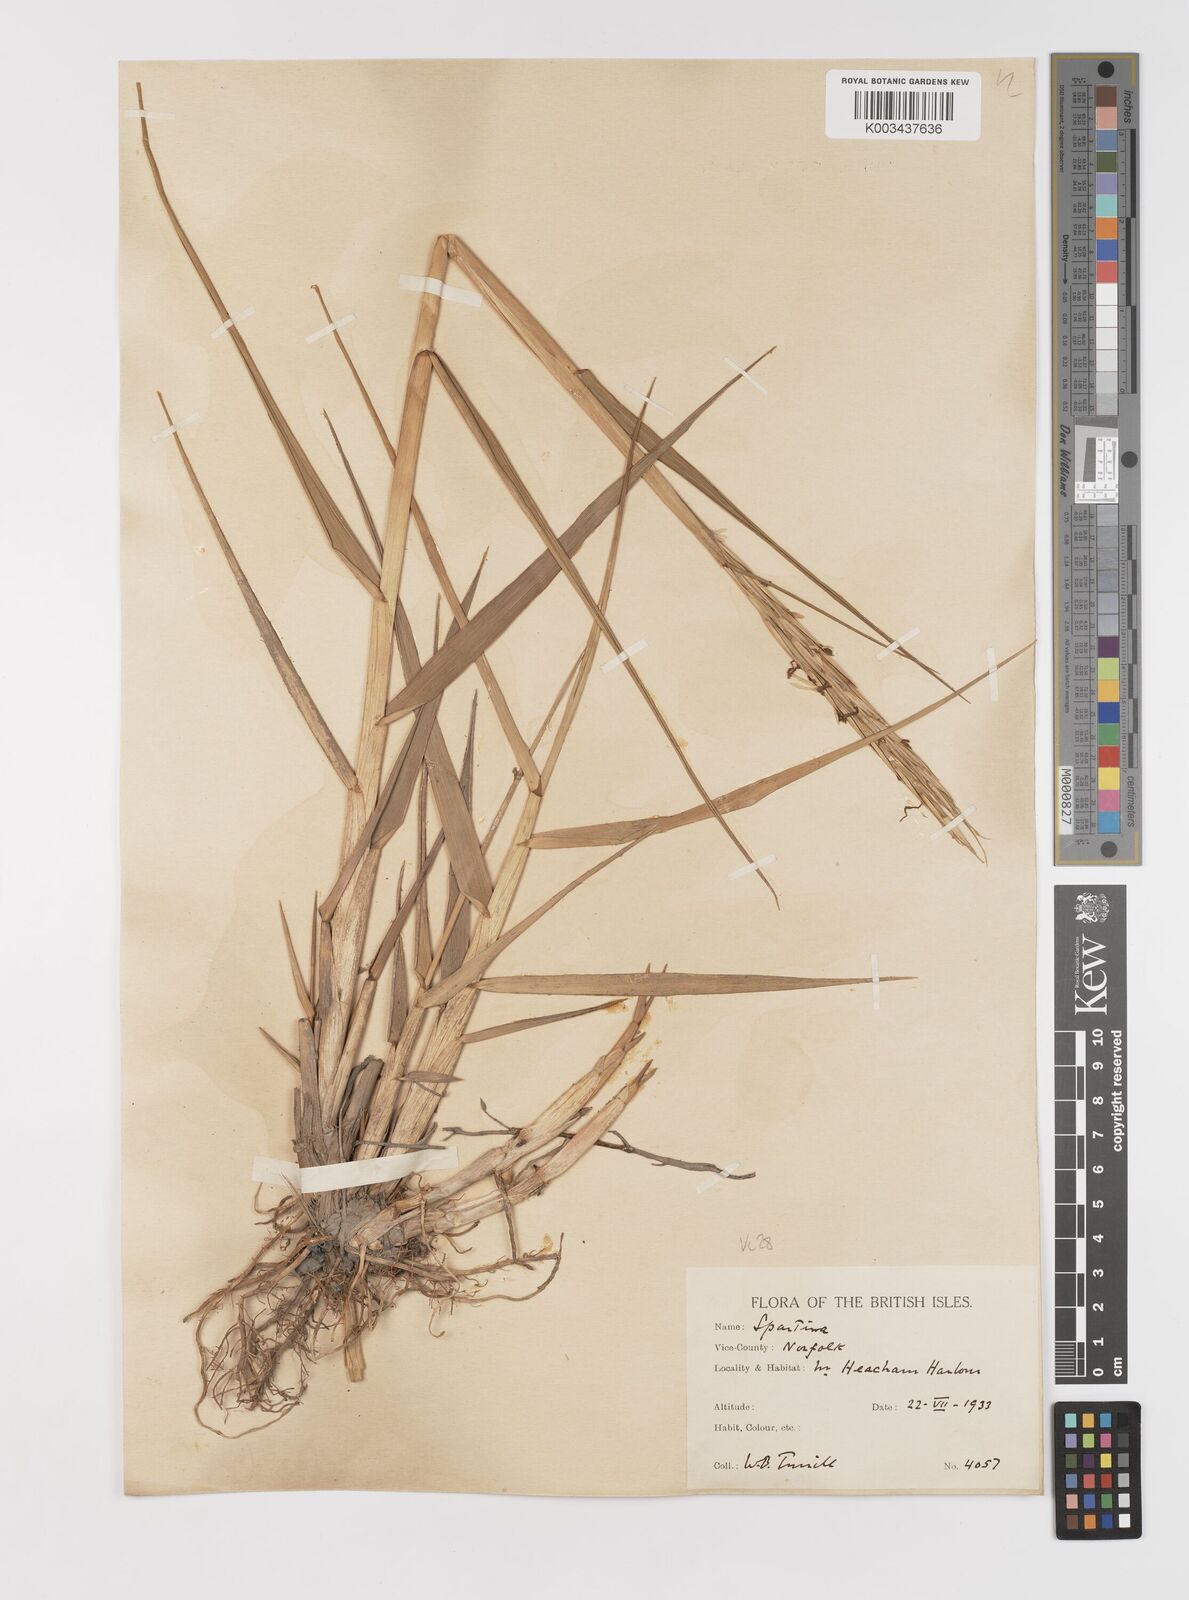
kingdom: Plantae
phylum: Tracheophyta
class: Liliopsida
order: Poales
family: Poaceae
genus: Sporobolus
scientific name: Sporobolus anglicus
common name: English cordgrass
